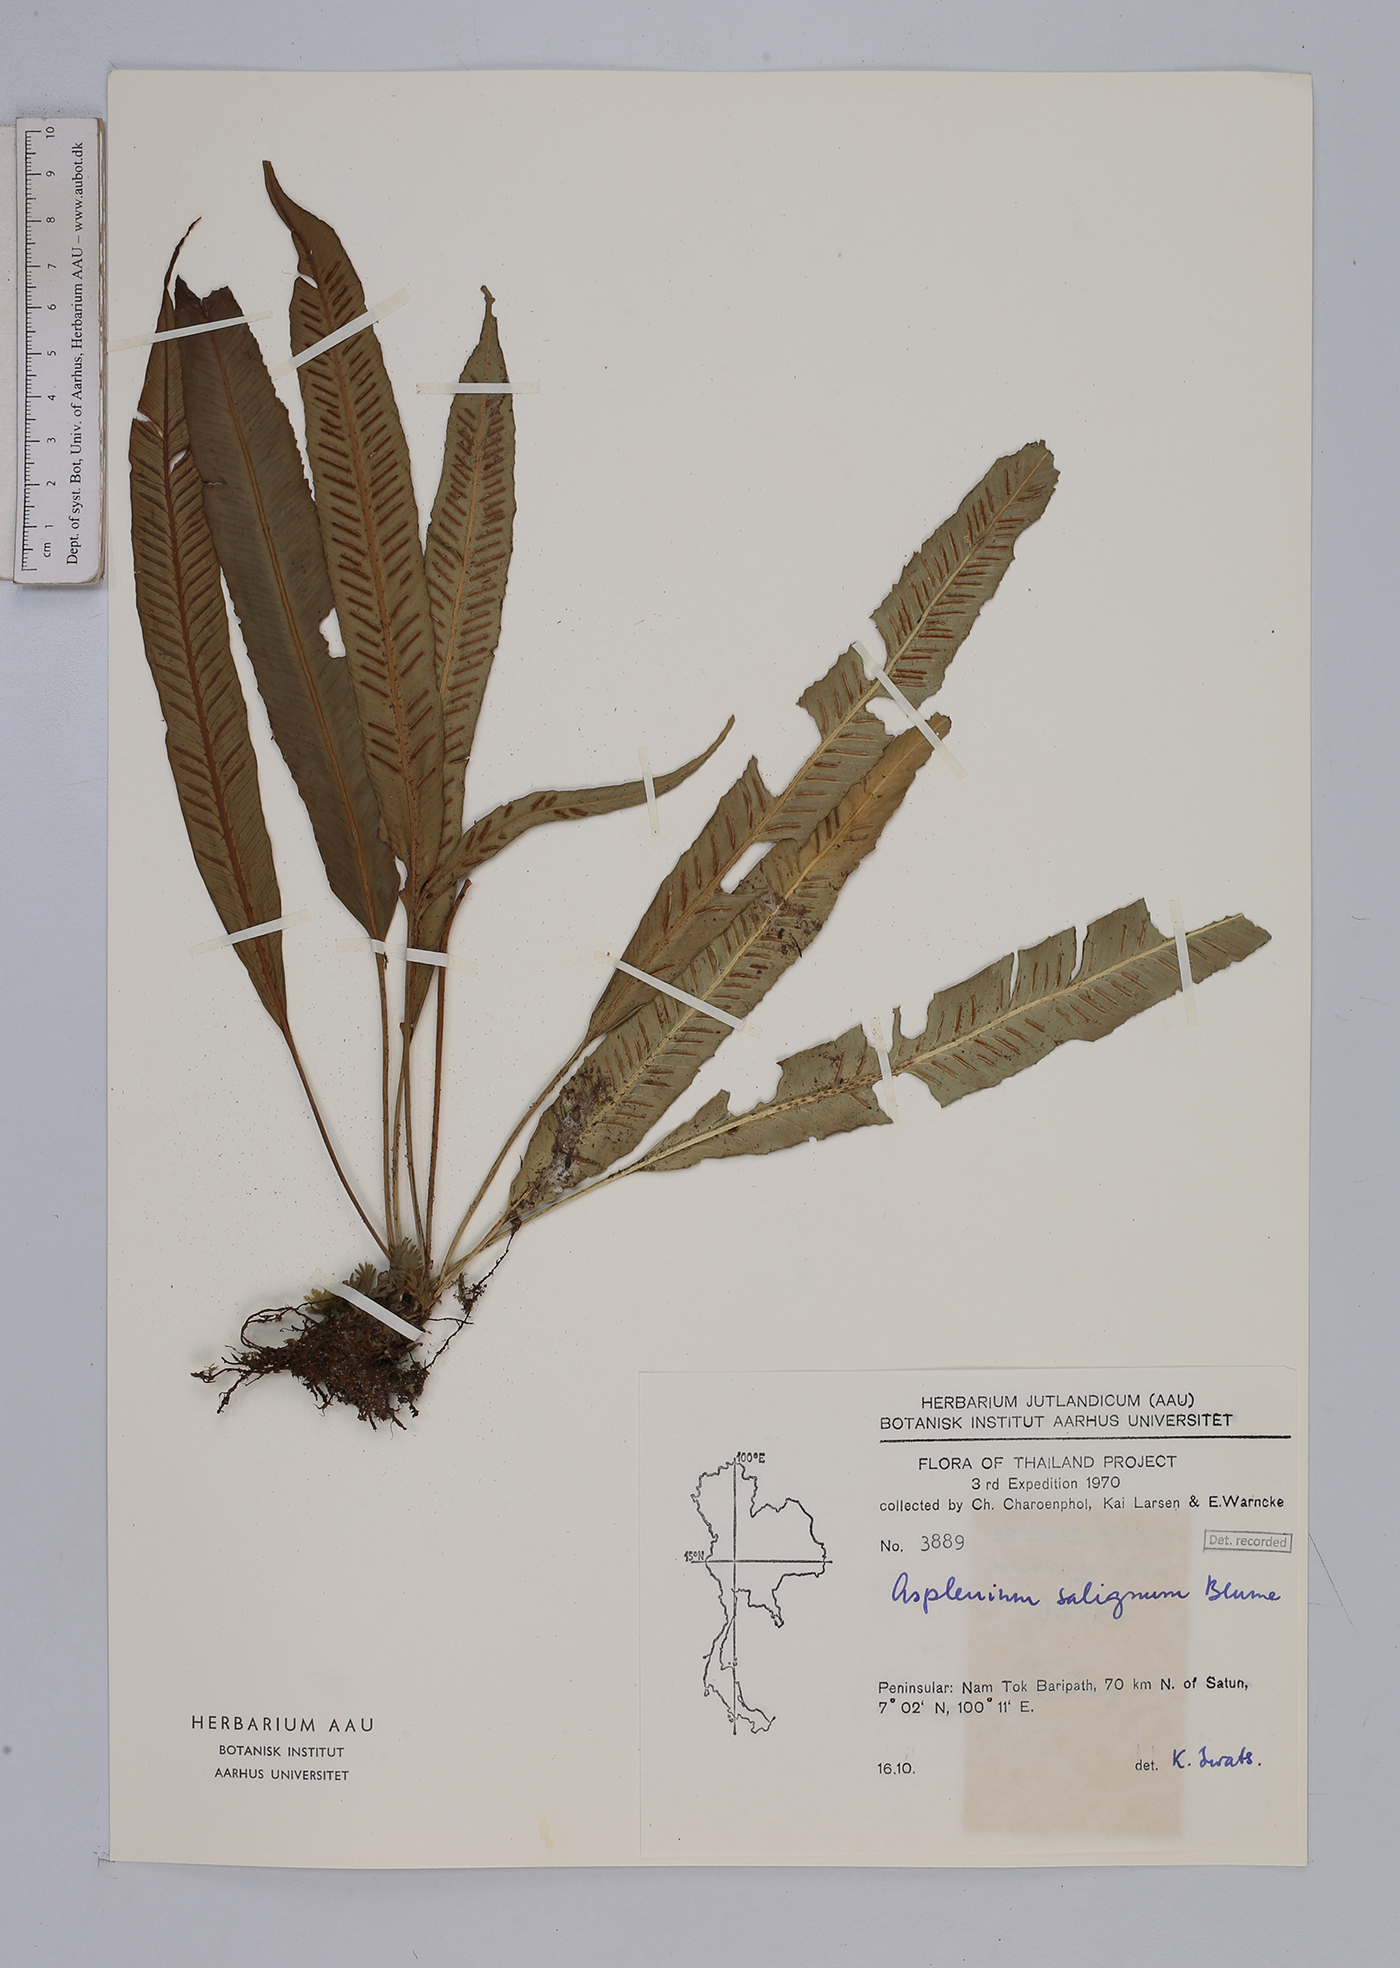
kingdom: Plantae
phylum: Tracheophyta
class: Polypodiopsida
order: Polypodiales
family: Aspleniaceae
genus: Asplenium
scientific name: Asplenium salignum
